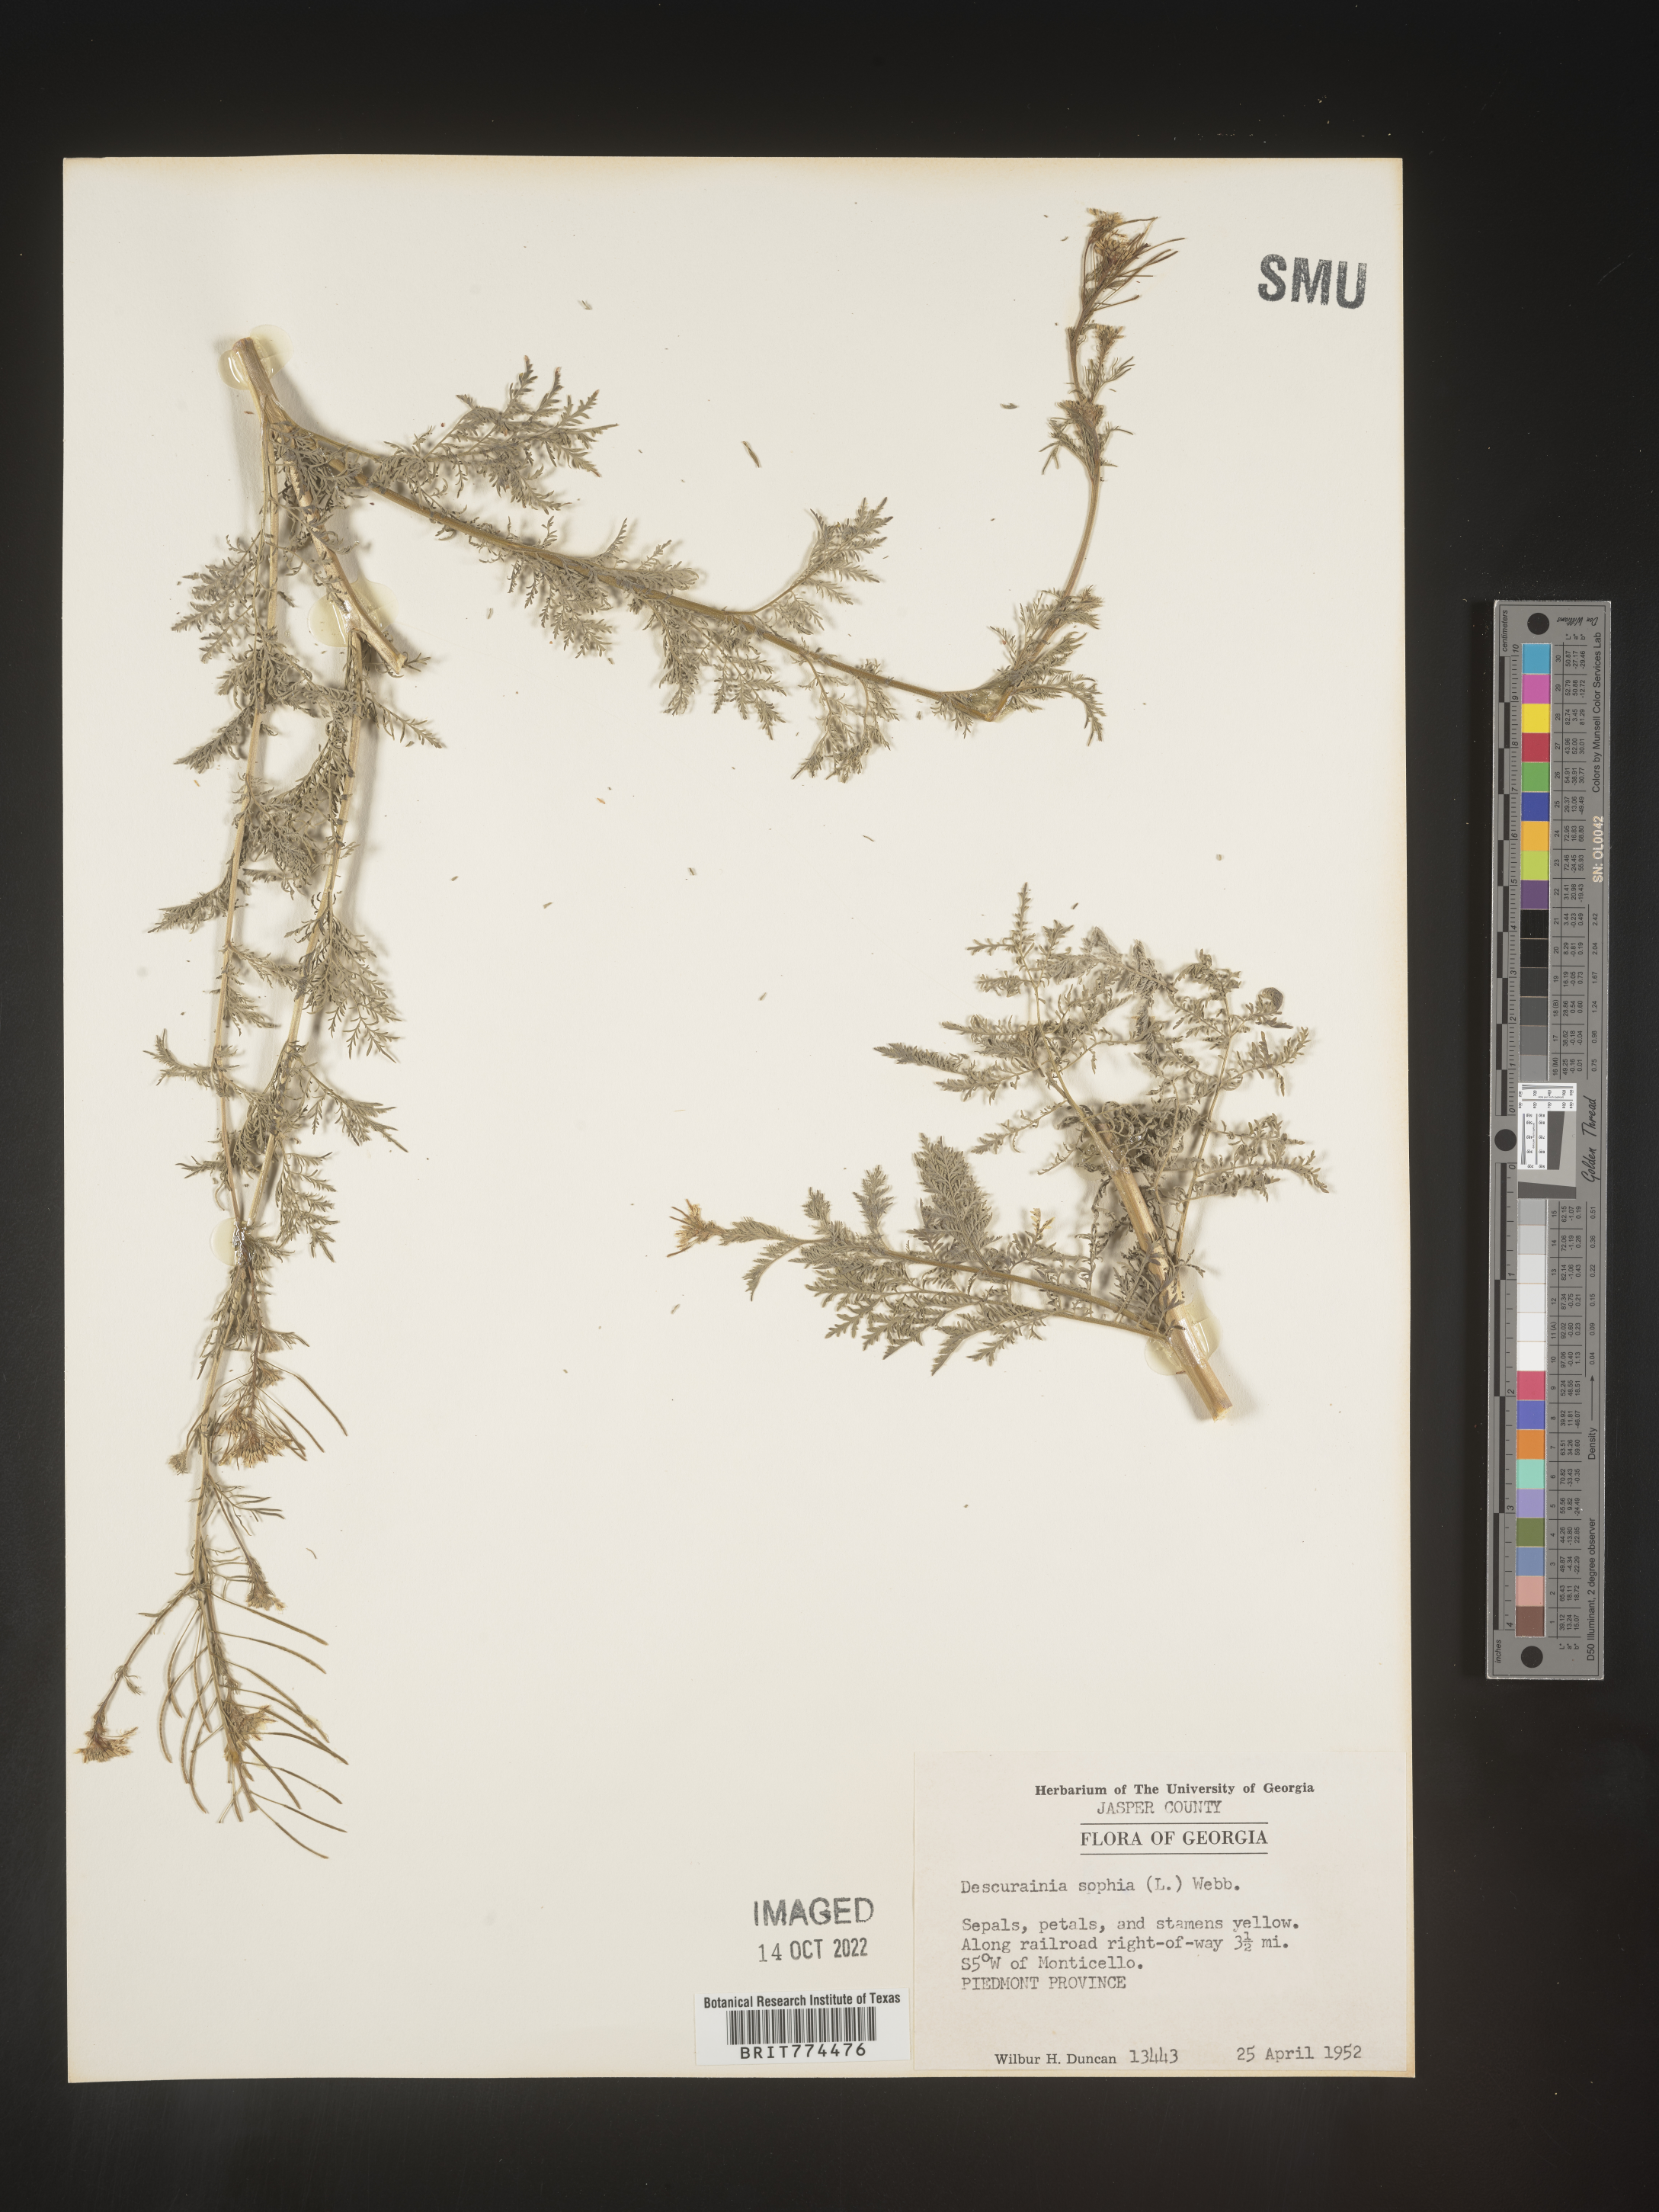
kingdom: Plantae
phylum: Tracheophyta
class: Magnoliopsida
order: Brassicales
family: Brassicaceae
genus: Descurainia
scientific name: Descurainia sophia
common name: Flixweed
